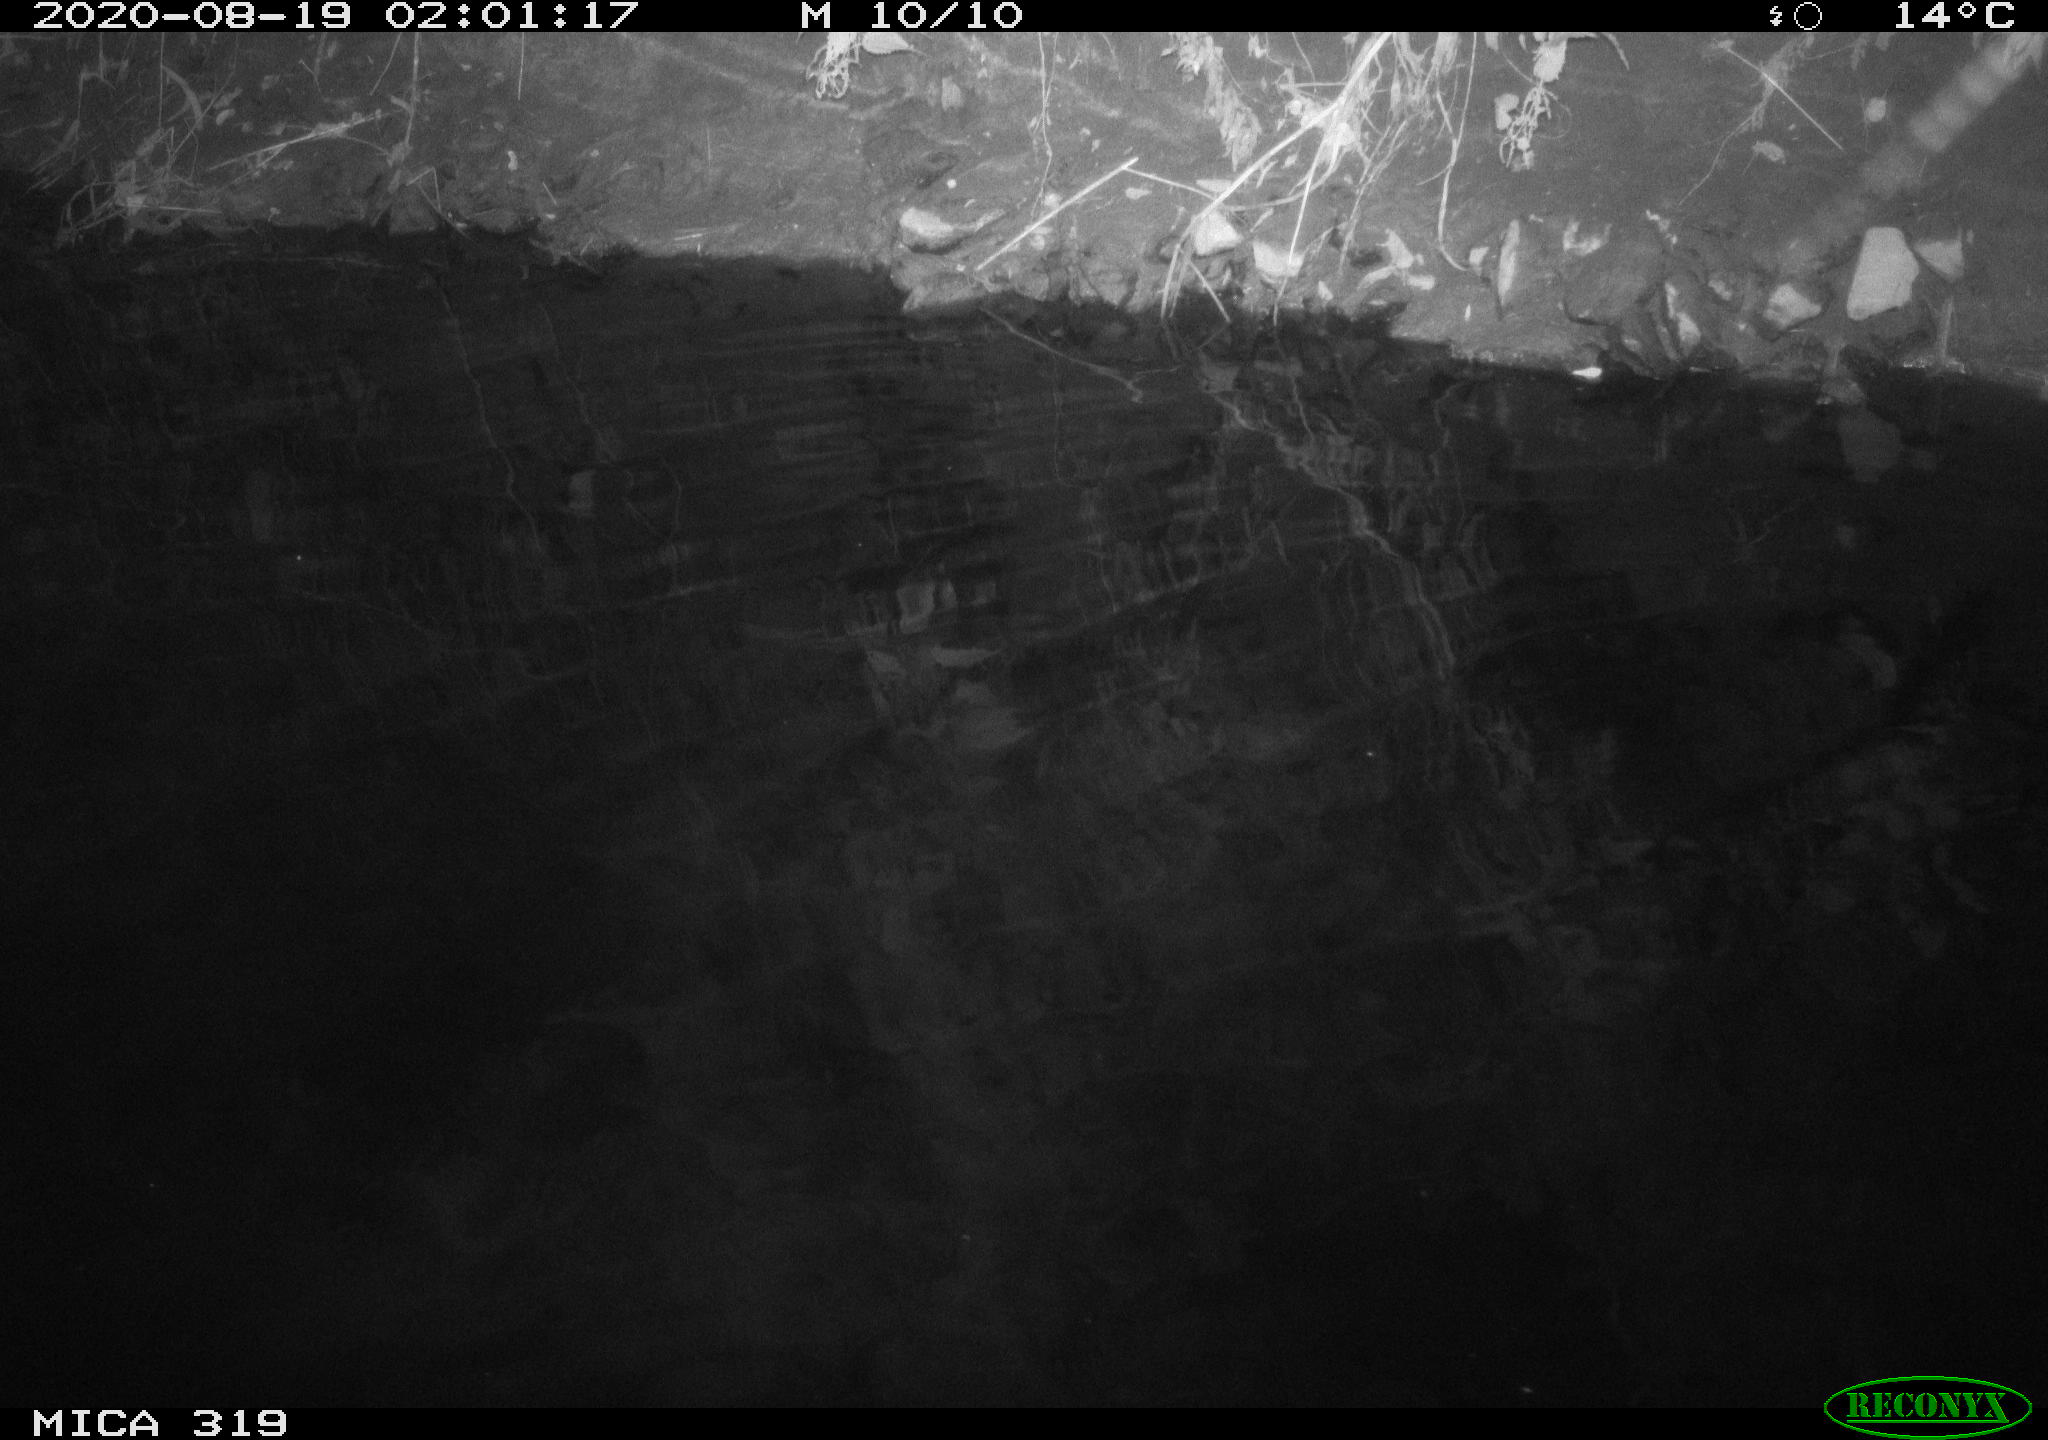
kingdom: Animalia
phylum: Chordata
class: Aves
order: Anseriformes
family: Anatidae
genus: Anas
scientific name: Anas platyrhynchos
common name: Mallard
